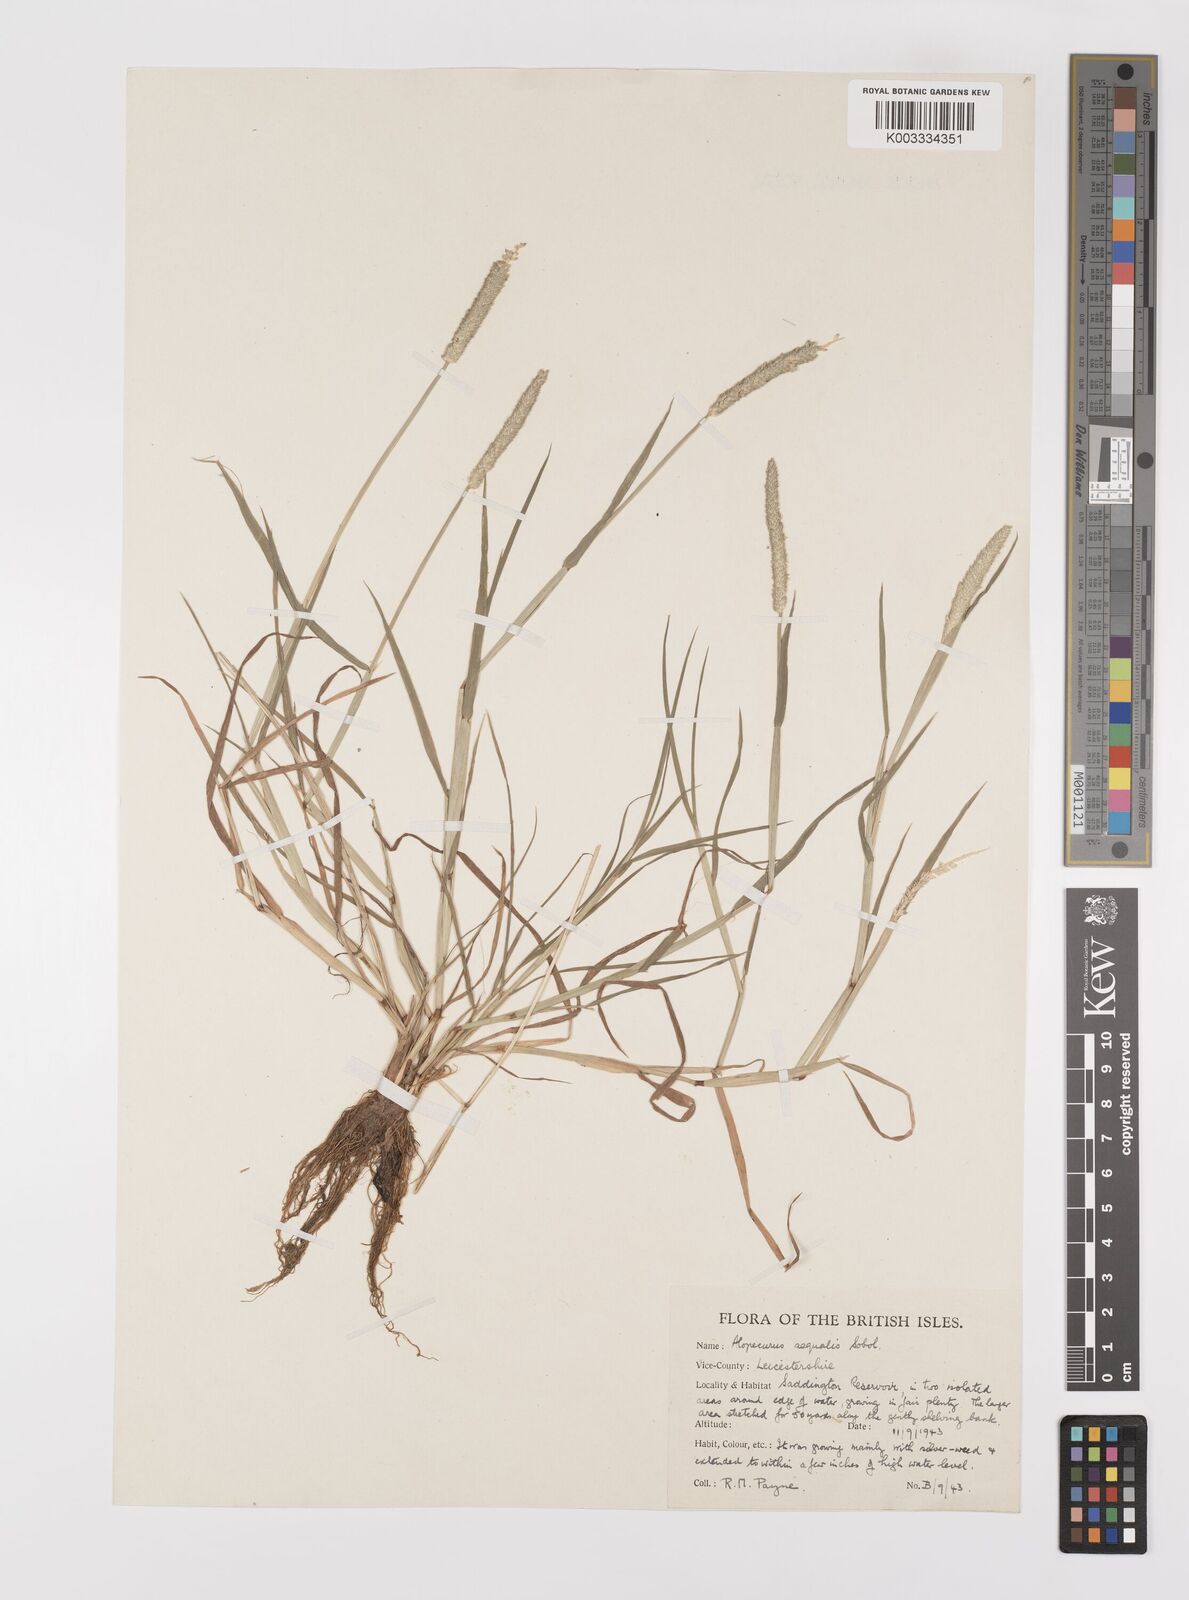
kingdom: Plantae
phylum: Tracheophyta
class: Liliopsida
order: Poales
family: Poaceae
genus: Alopecurus
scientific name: Alopecurus aequalis
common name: Orange foxtail
